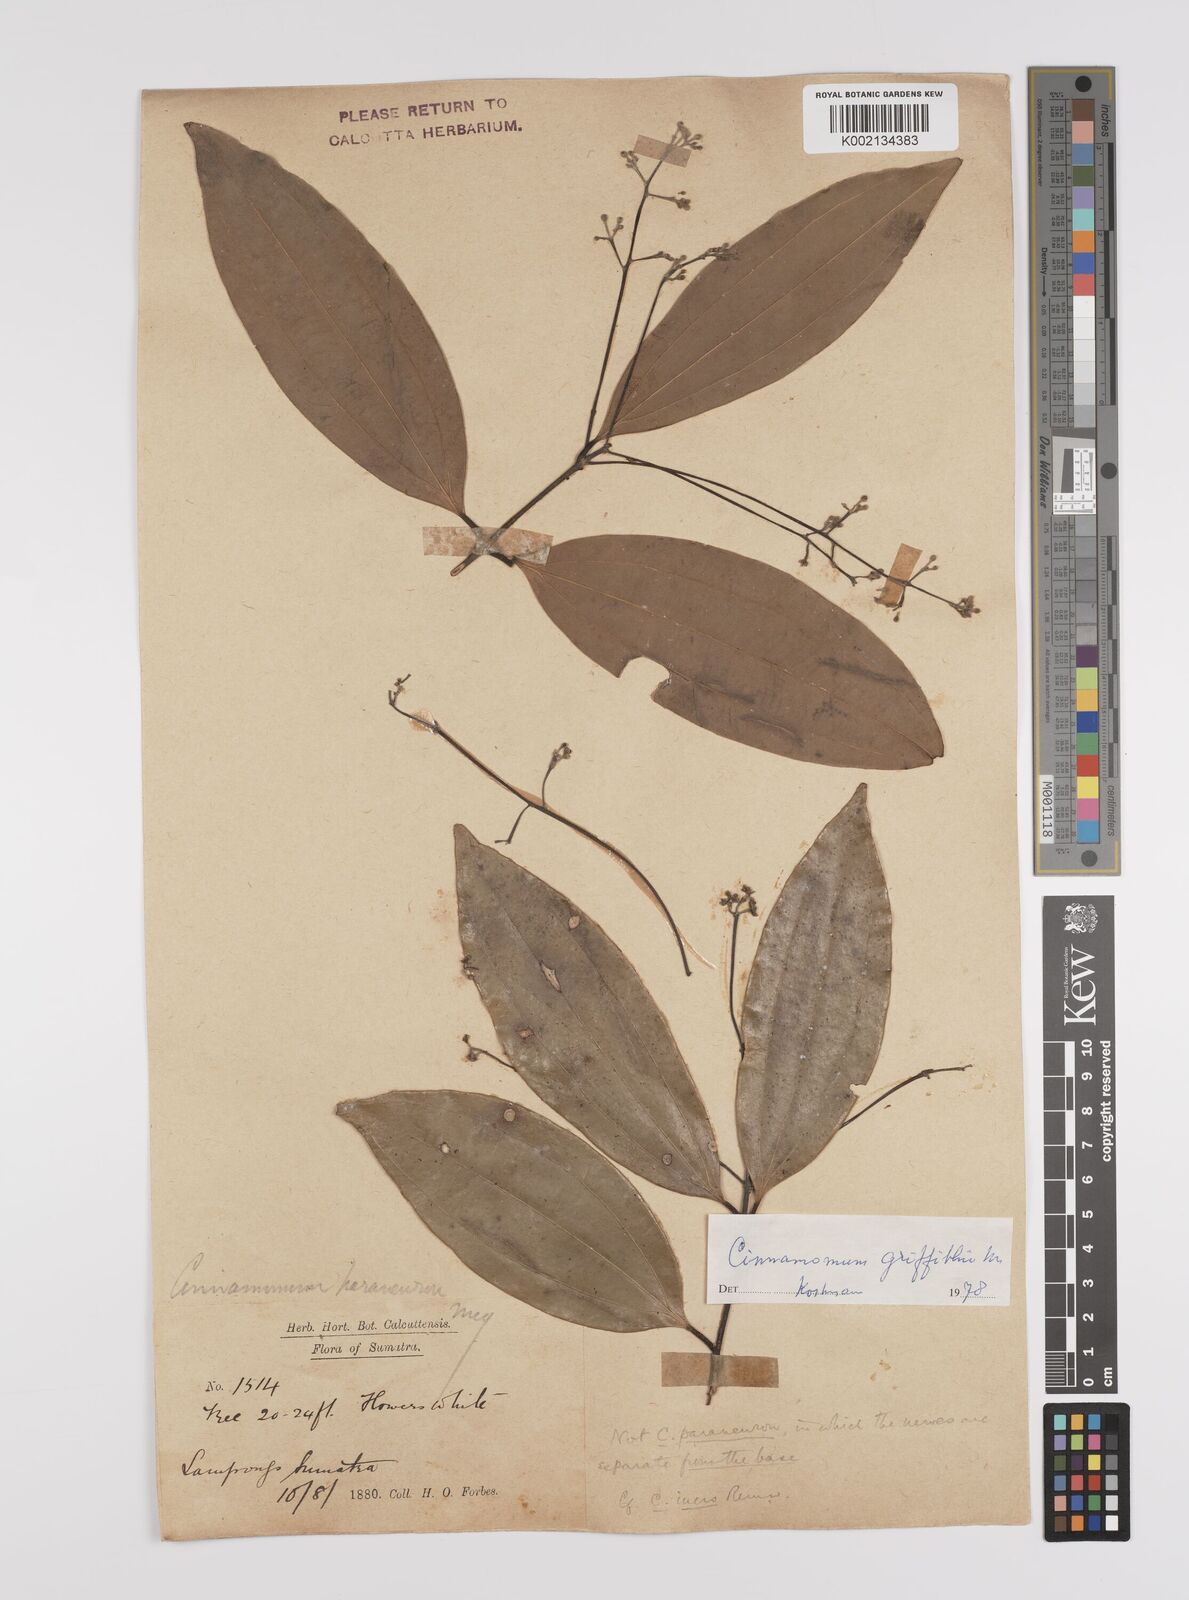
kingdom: Plantae
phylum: Tracheophyta
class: Magnoliopsida
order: Laurales
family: Lauraceae
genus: Cinnamomum
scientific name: Cinnamomum iners
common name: Wild cinnamon
